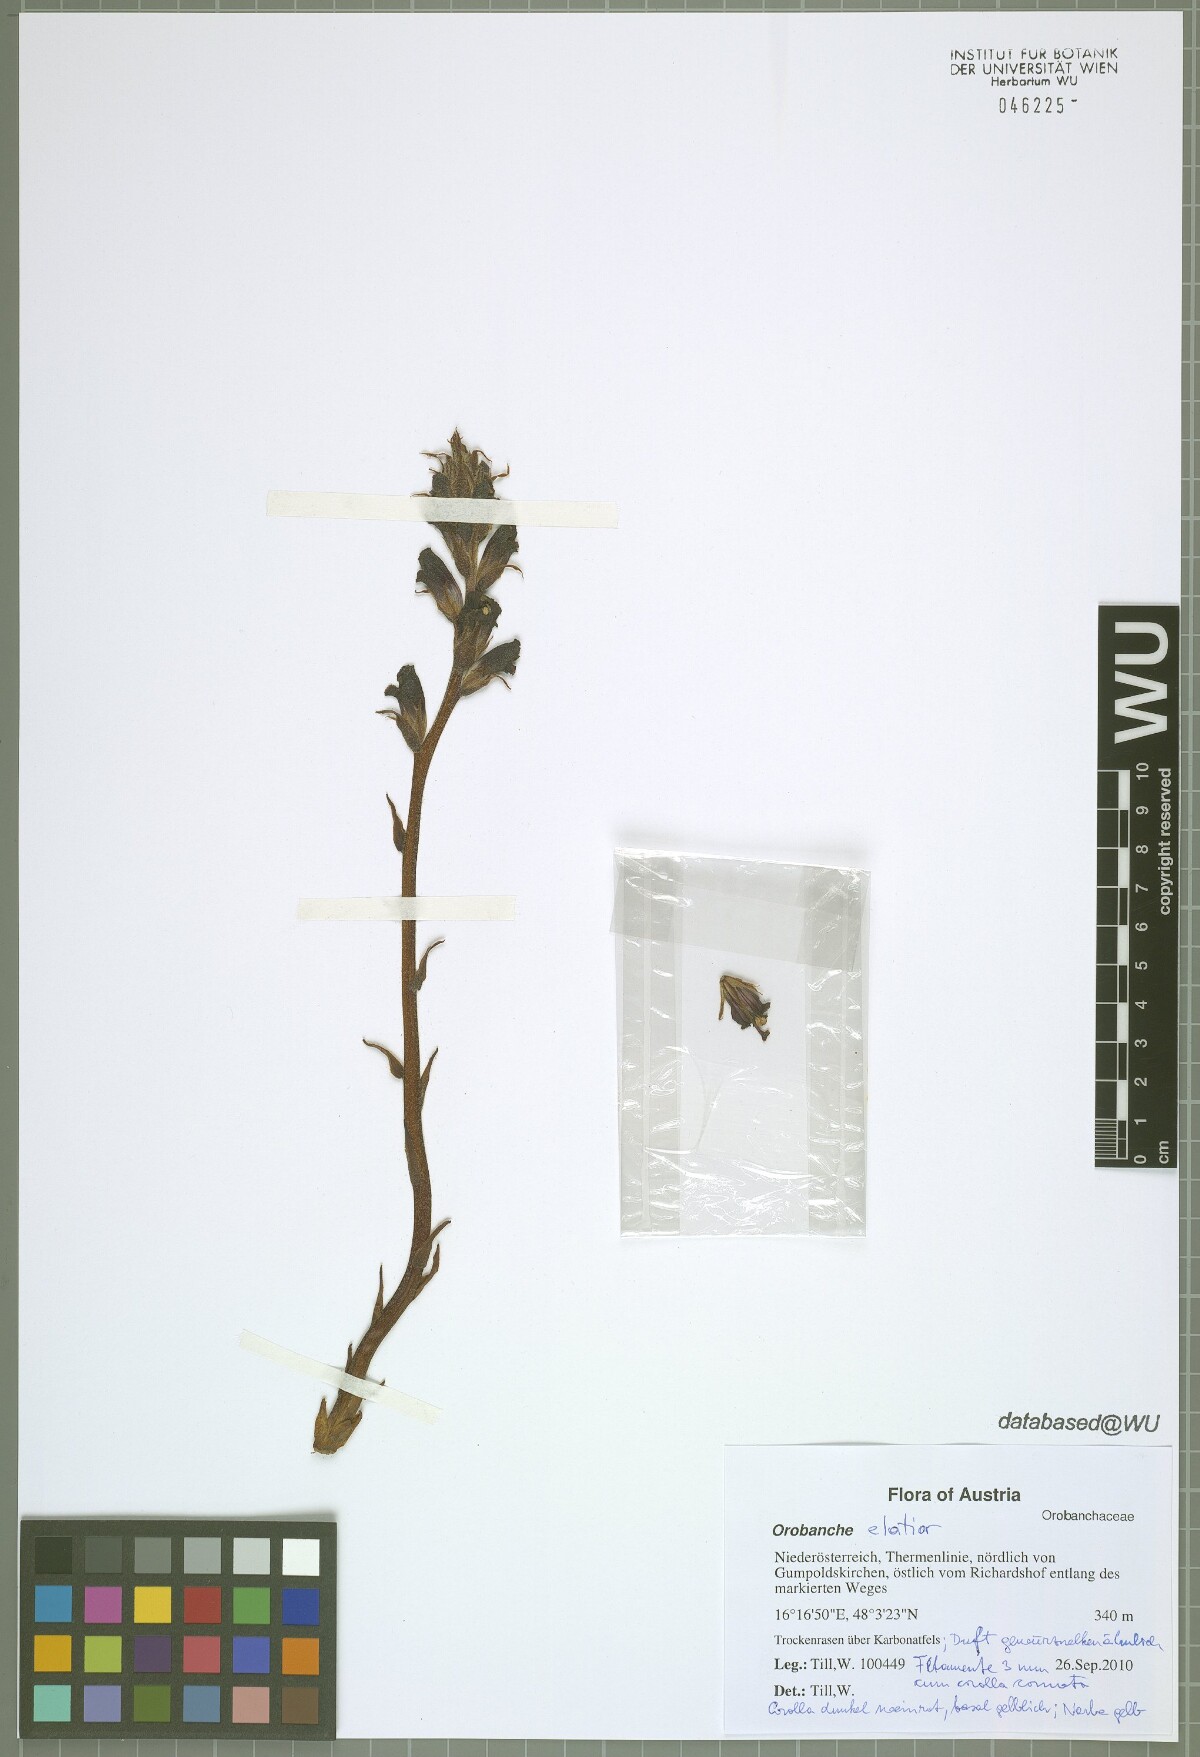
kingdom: Plantae
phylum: Tracheophyta
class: Magnoliopsida
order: Lamiales
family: Orobanchaceae
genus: Orobanche
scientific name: Orobanche elatior
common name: Knapweed broomrape
